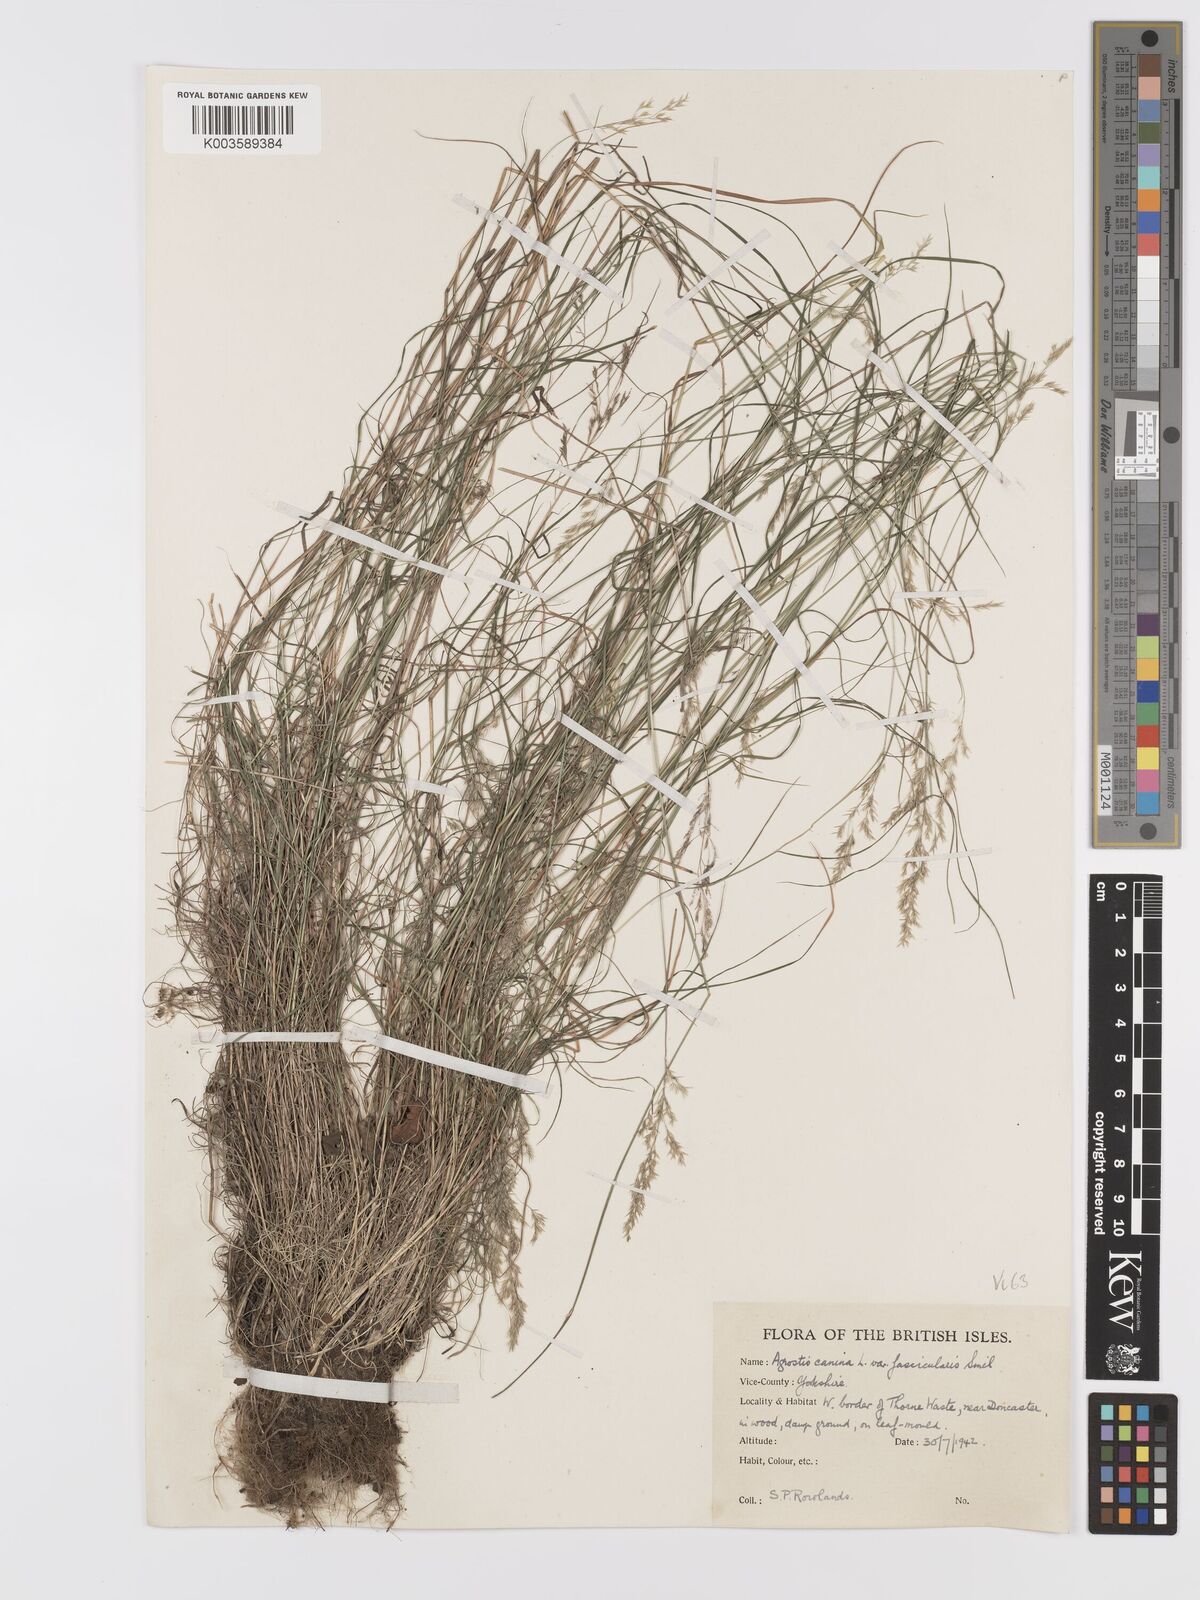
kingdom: Plantae
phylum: Tracheophyta
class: Liliopsida
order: Poales
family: Poaceae
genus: Agrostis
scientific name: Agrostis canina
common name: Velvet bent
